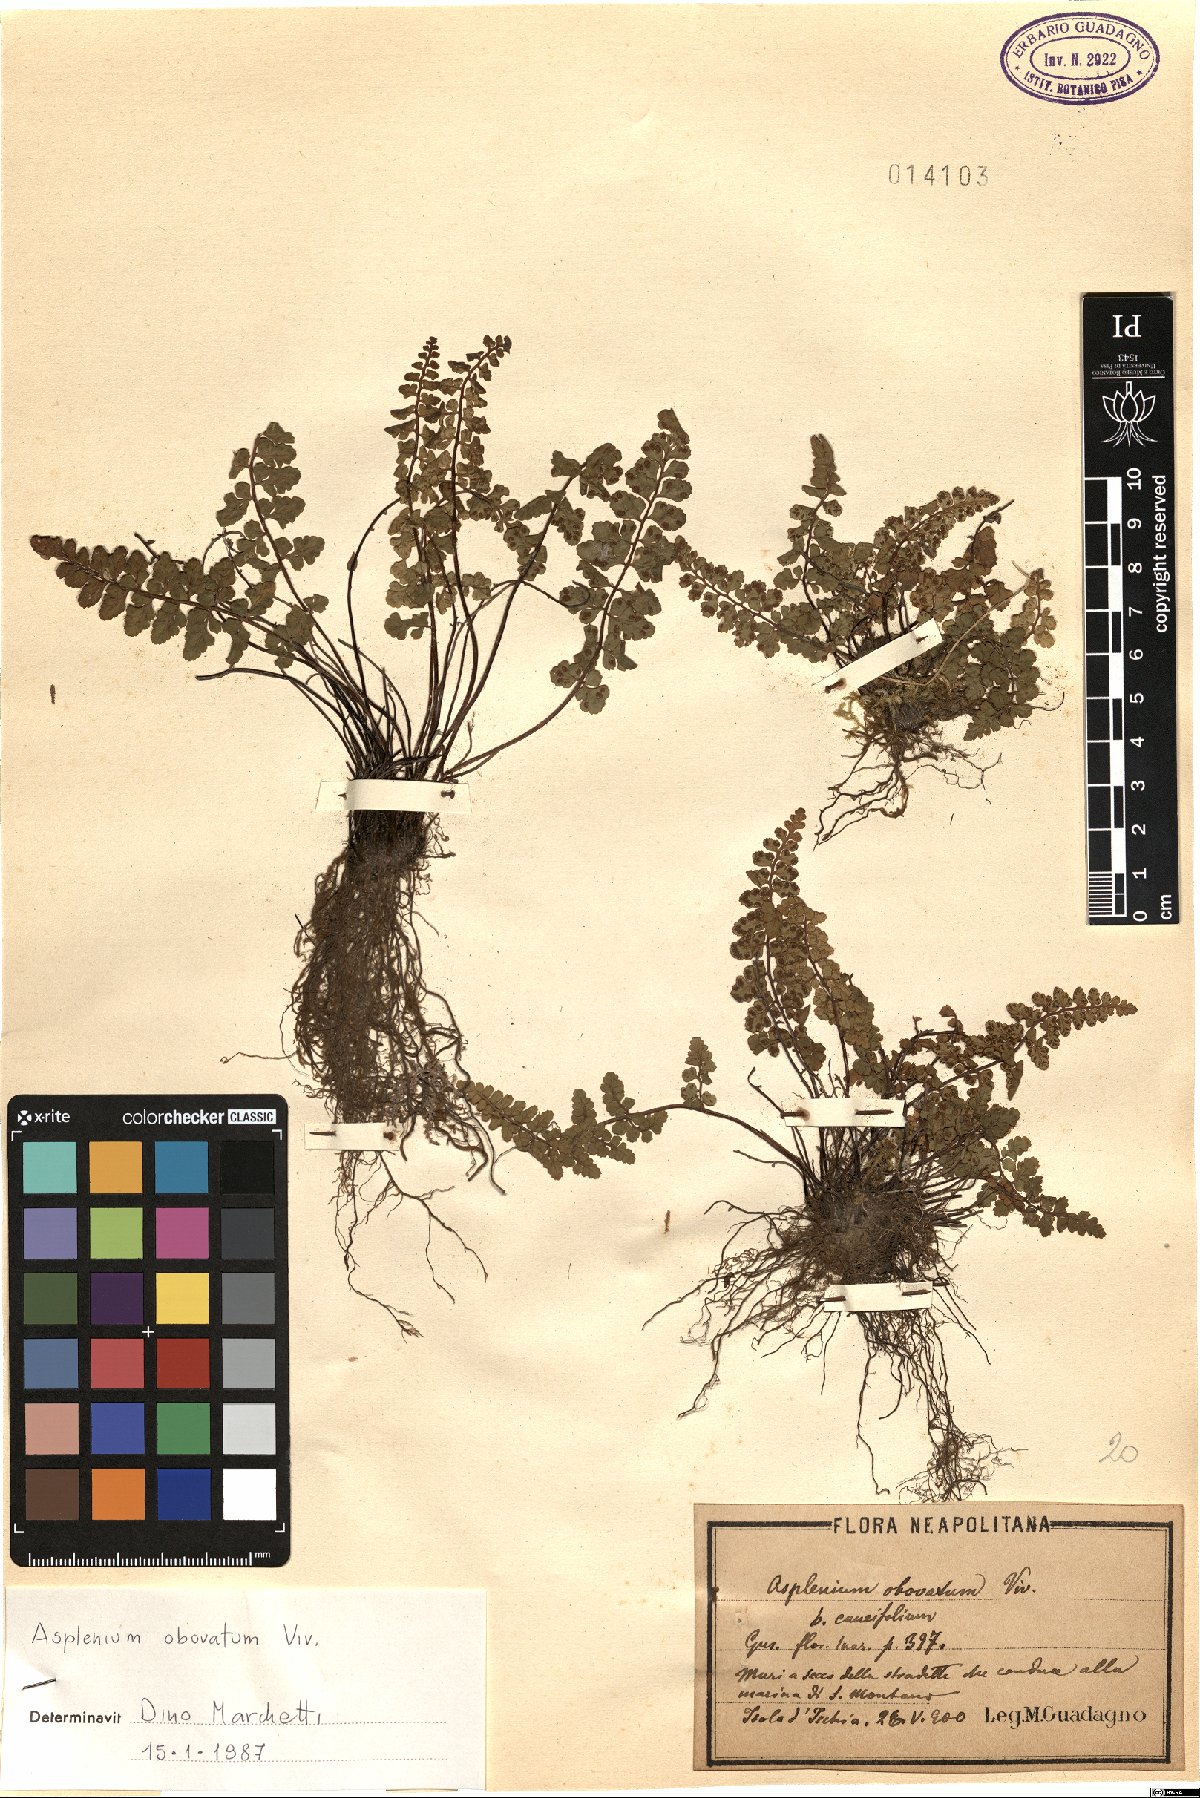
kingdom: Plantae
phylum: Tracheophyta
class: Polypodiopsida
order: Polypodiales
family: Aspleniaceae
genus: Asplenium
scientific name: Asplenium obovatum
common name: Lanceolate spleenwort
